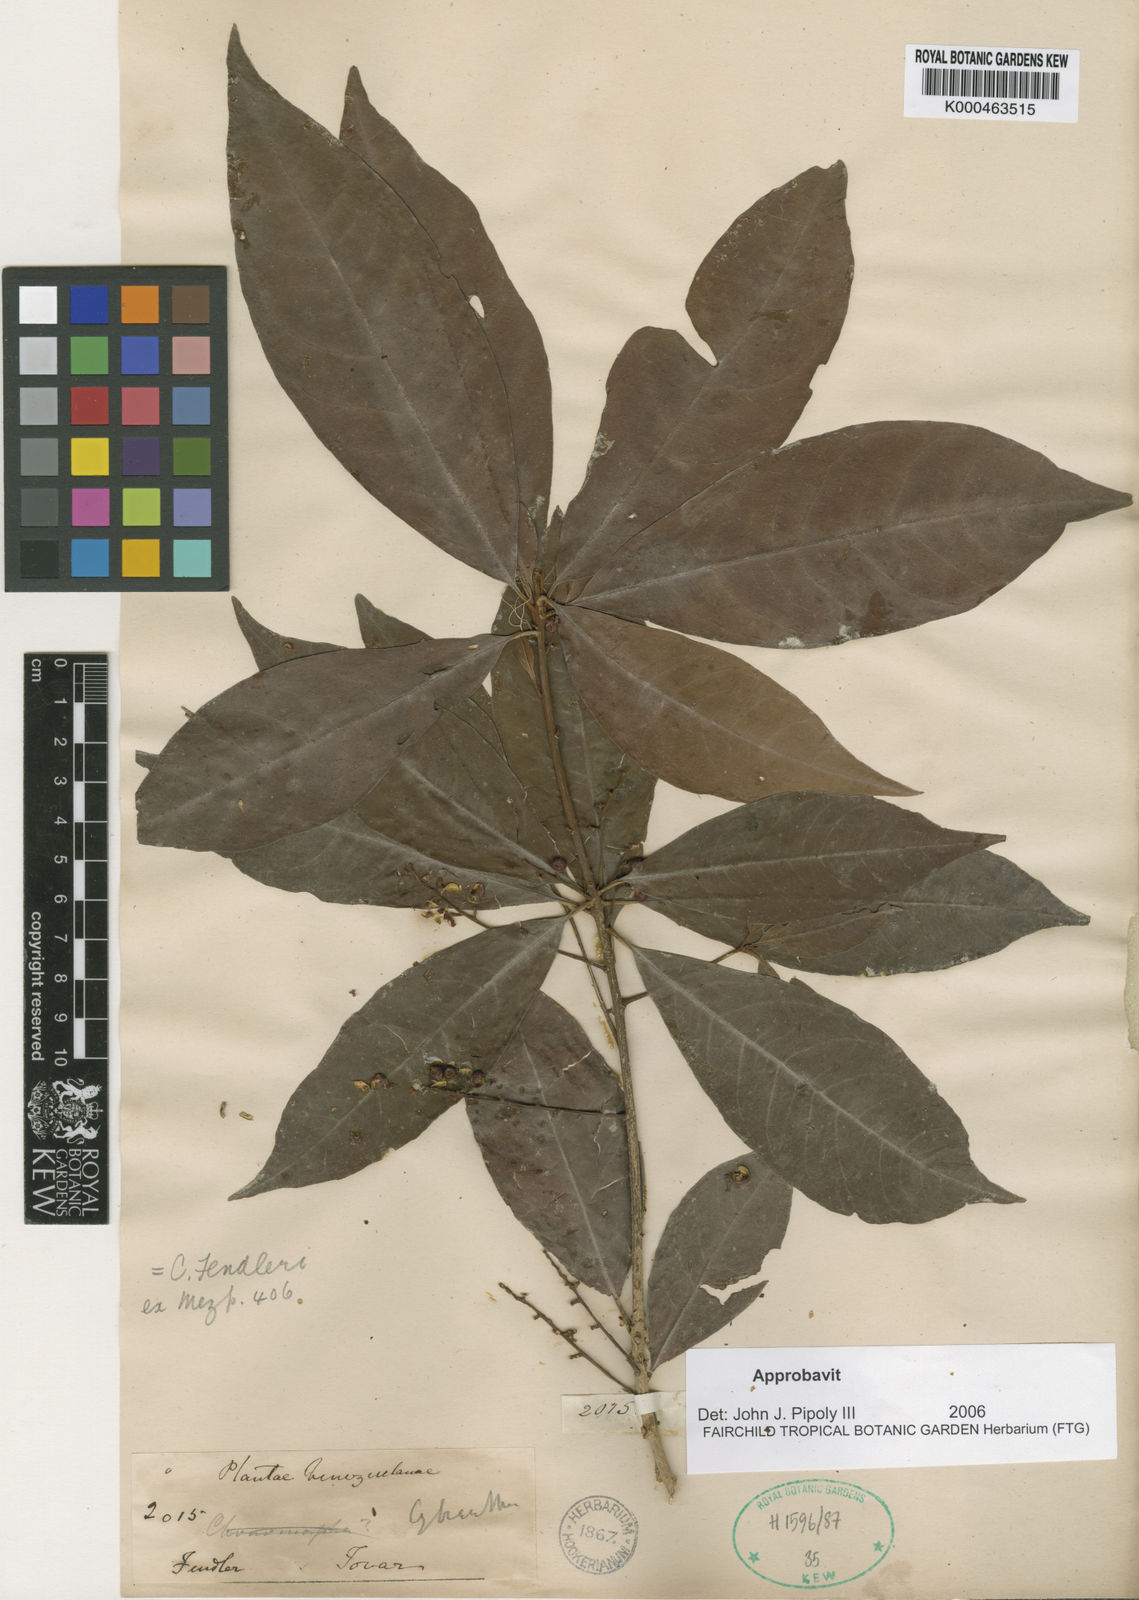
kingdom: Plantae
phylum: Tracheophyta
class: Magnoliopsida
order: Ericales
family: Primulaceae
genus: Cybianthus
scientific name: Cybianthus fendleri
